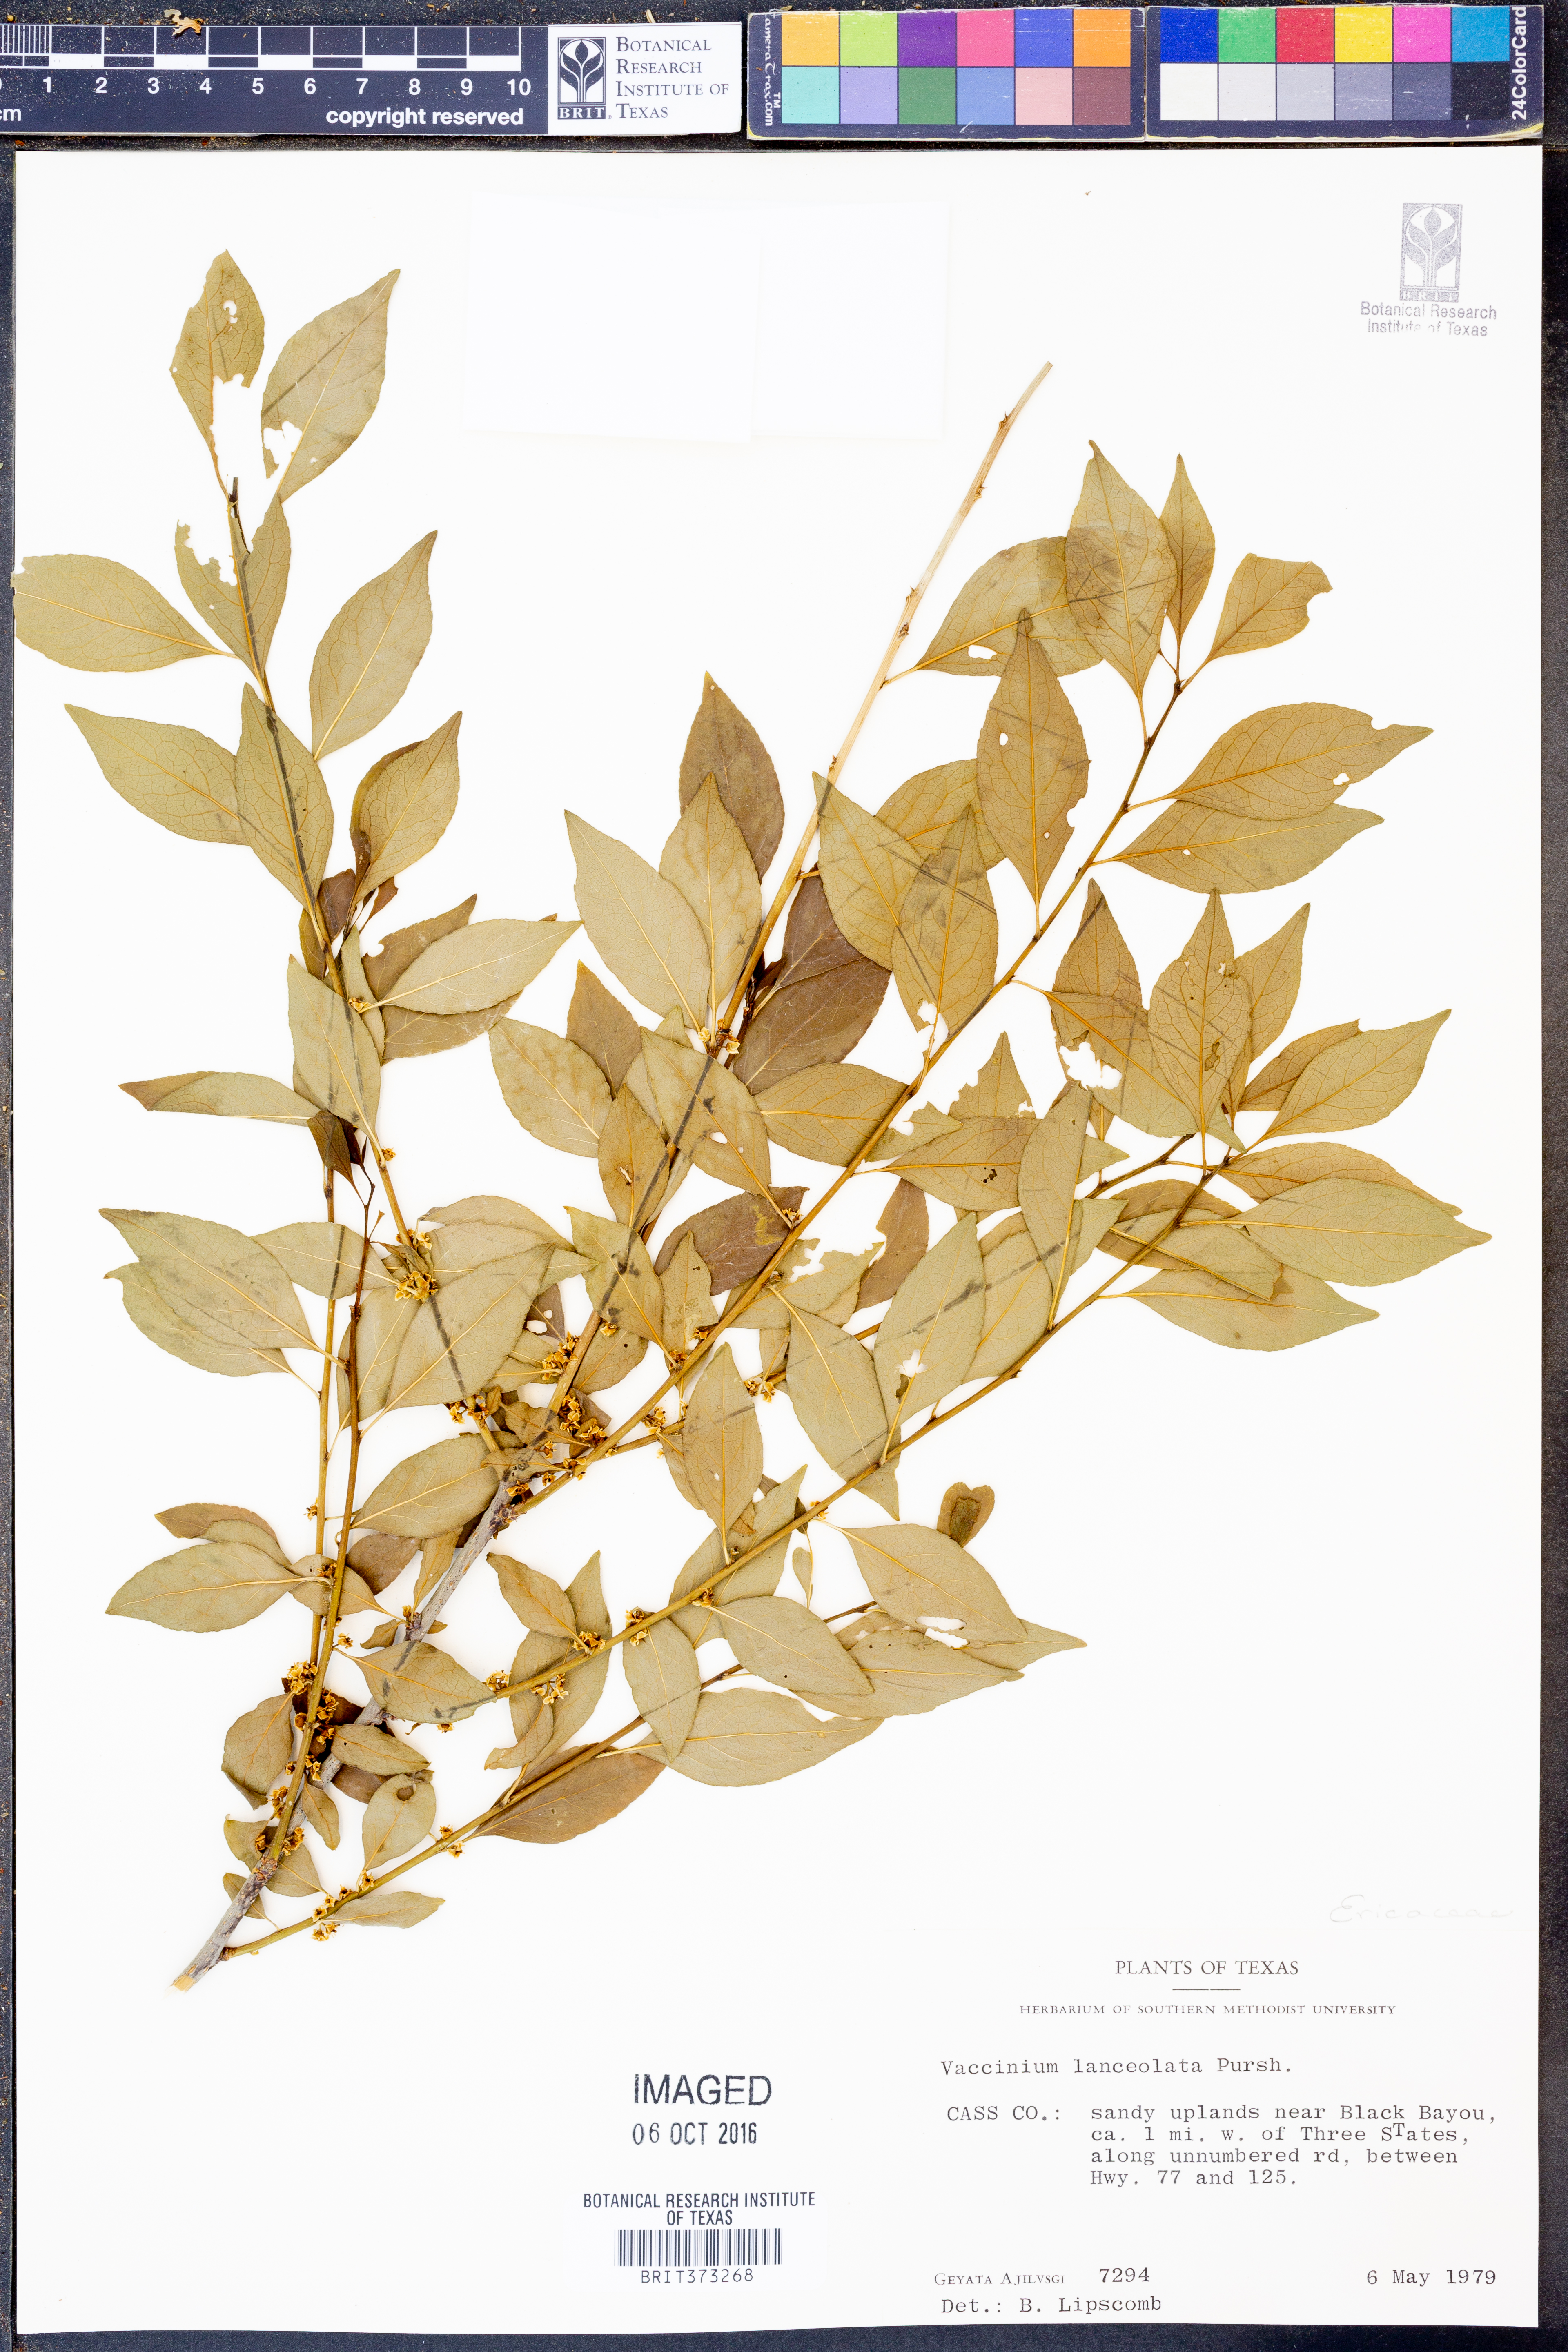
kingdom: Plantae
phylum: Tracheophyta
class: Magnoliopsida
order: Ericales
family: Ericaceae
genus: Rigiolepis
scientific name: Rigiolepis lanceolata
